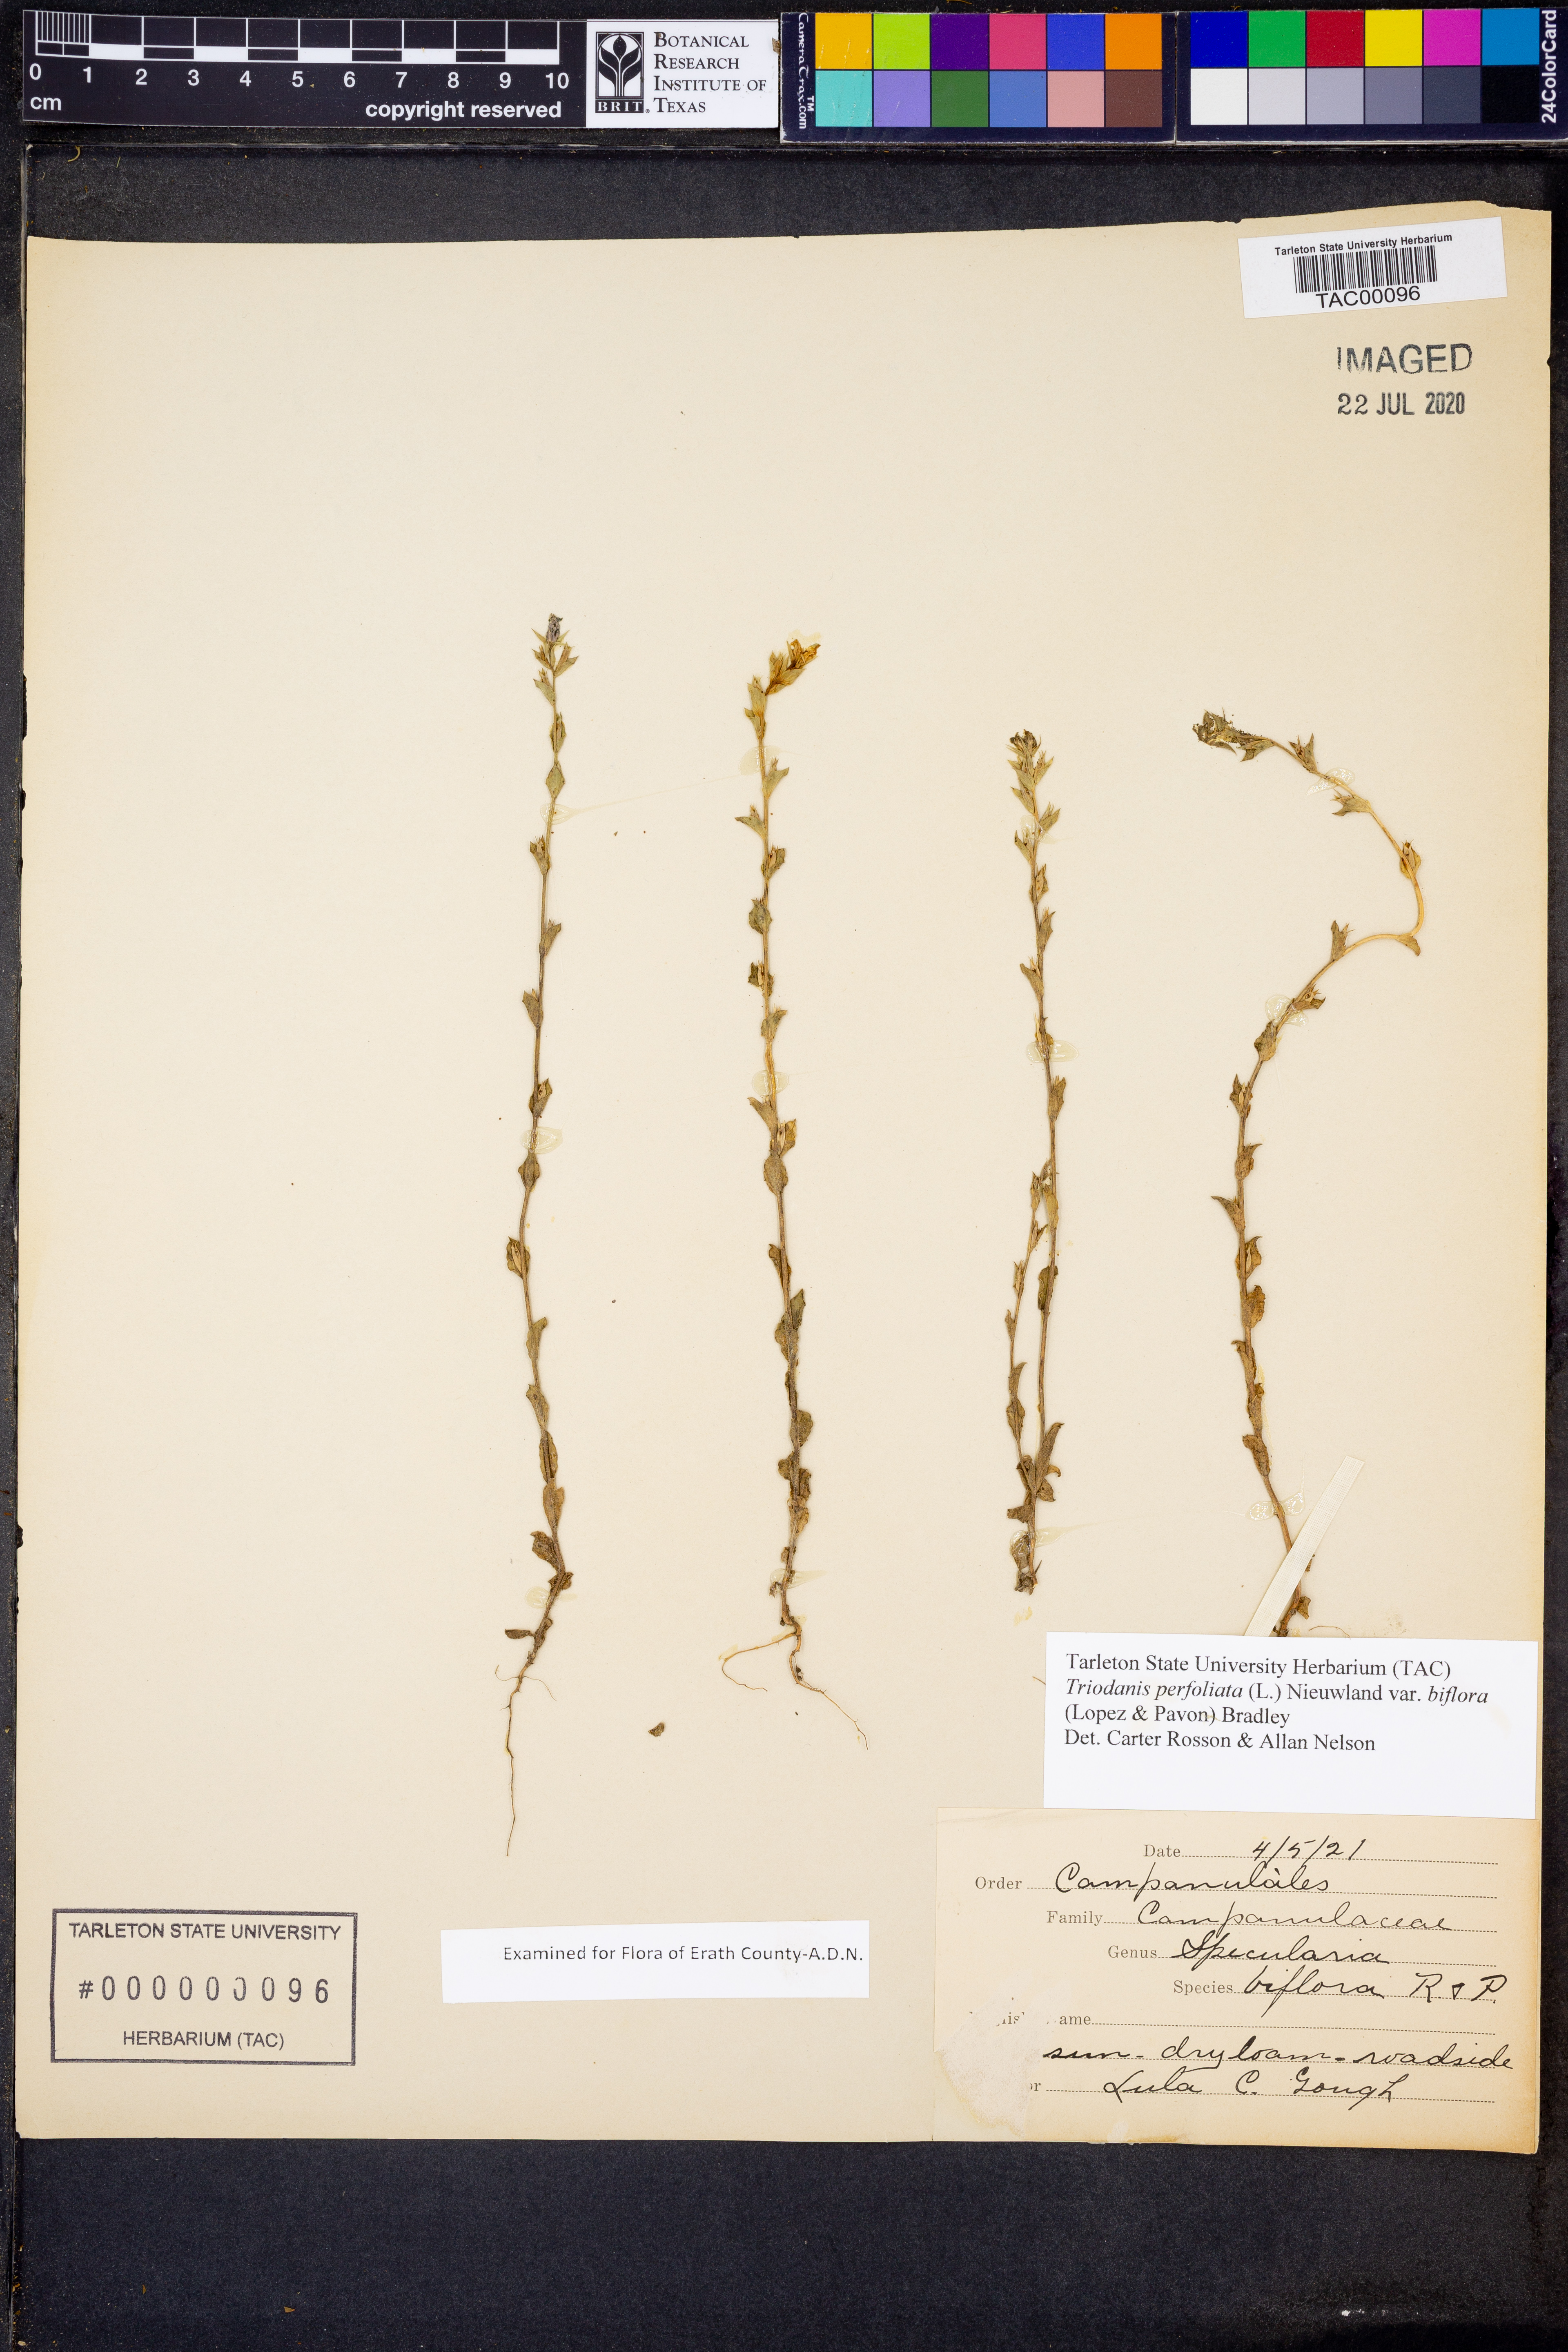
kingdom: Plantae
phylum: Tracheophyta
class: Magnoliopsida
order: Asterales
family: Campanulaceae
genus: Triodanis
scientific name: Triodanis perfoliata
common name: Clasping venus' looking-glass
